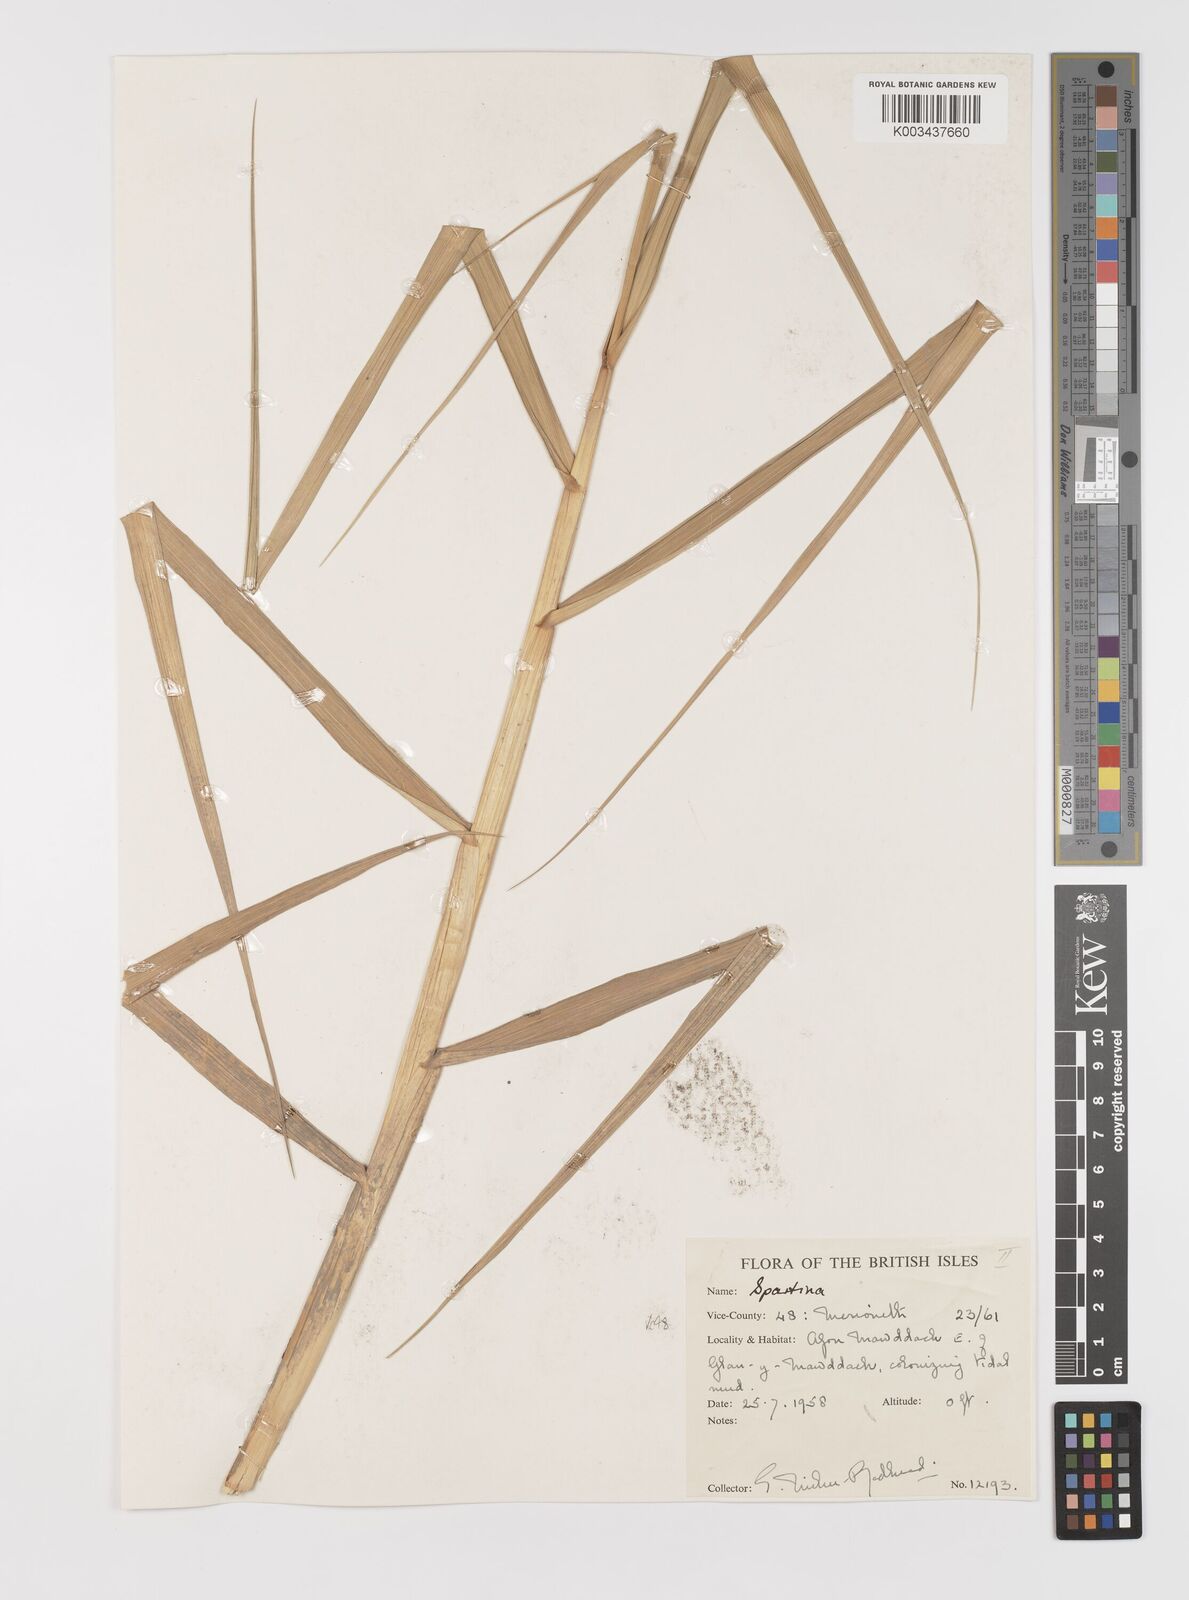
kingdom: Plantae
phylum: Tracheophyta
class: Liliopsida
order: Poales
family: Poaceae
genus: Sporobolus
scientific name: Sporobolus anglicus
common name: English cordgrass
